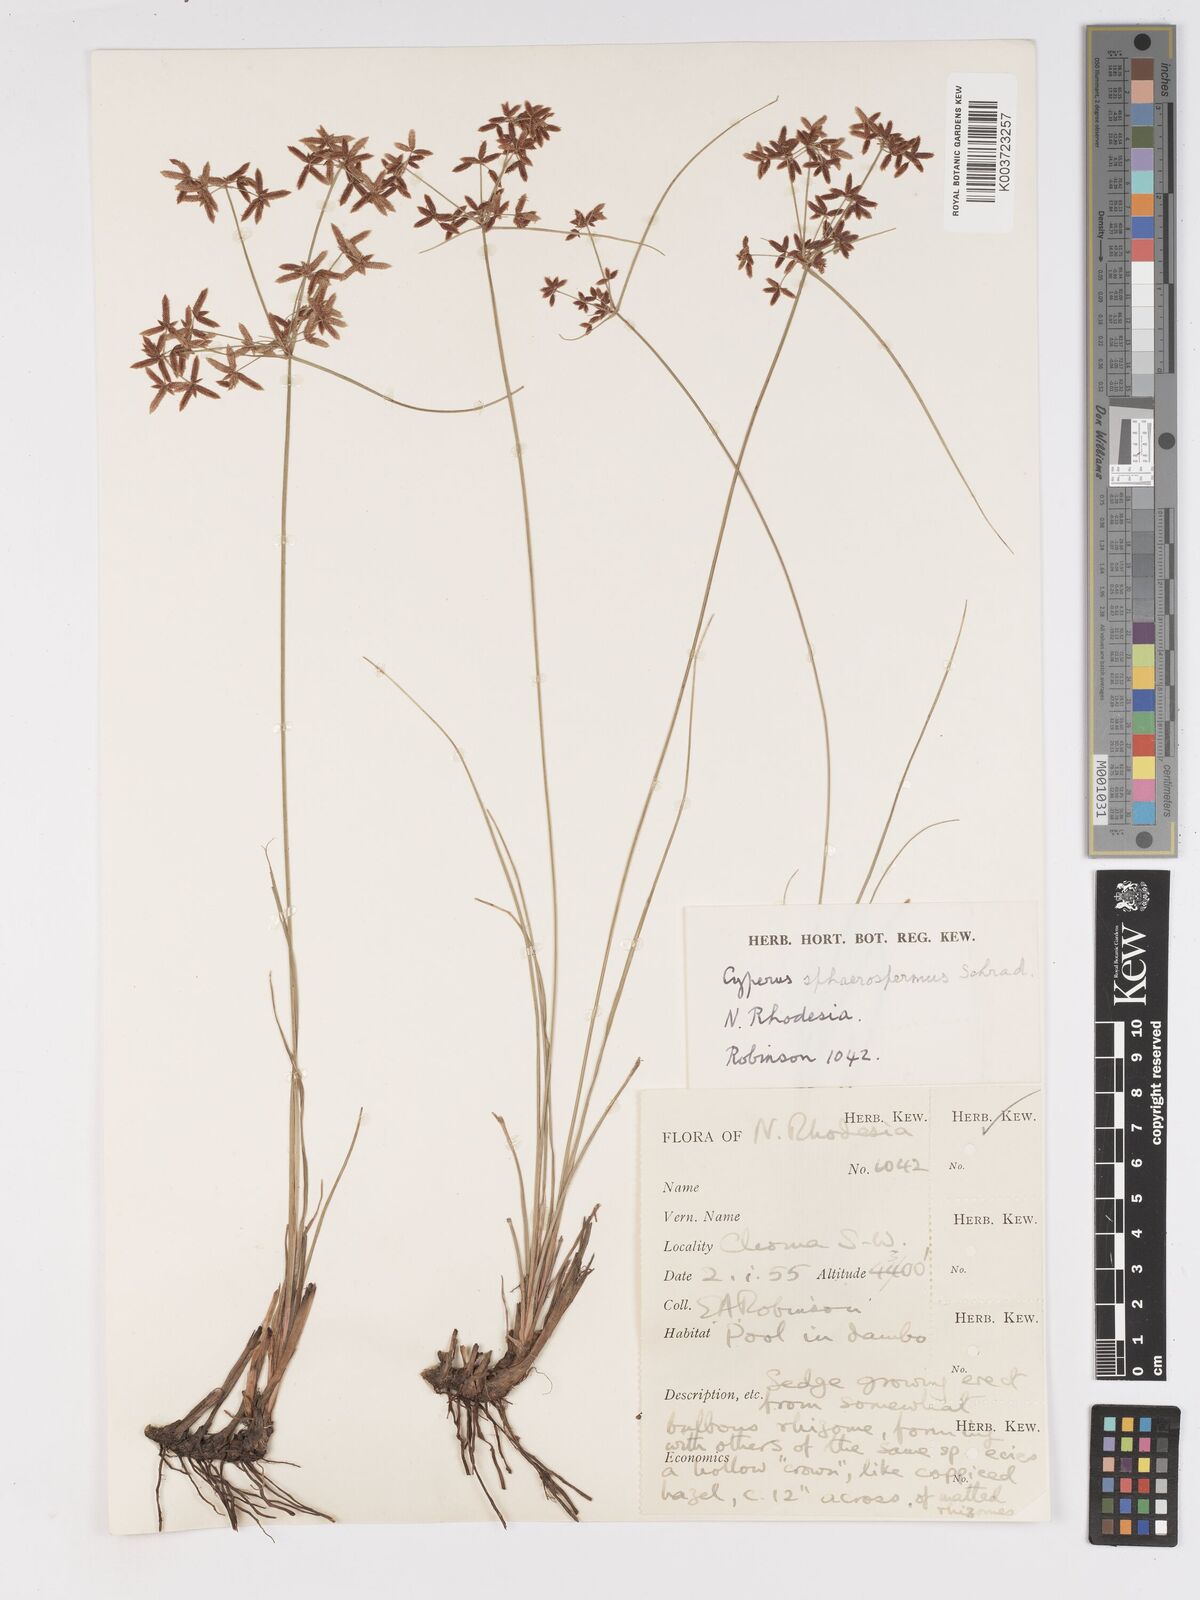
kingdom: Plantae
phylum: Tracheophyta
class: Liliopsida
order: Poales
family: Cyperaceae
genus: Cyperus
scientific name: Cyperus denudatus
